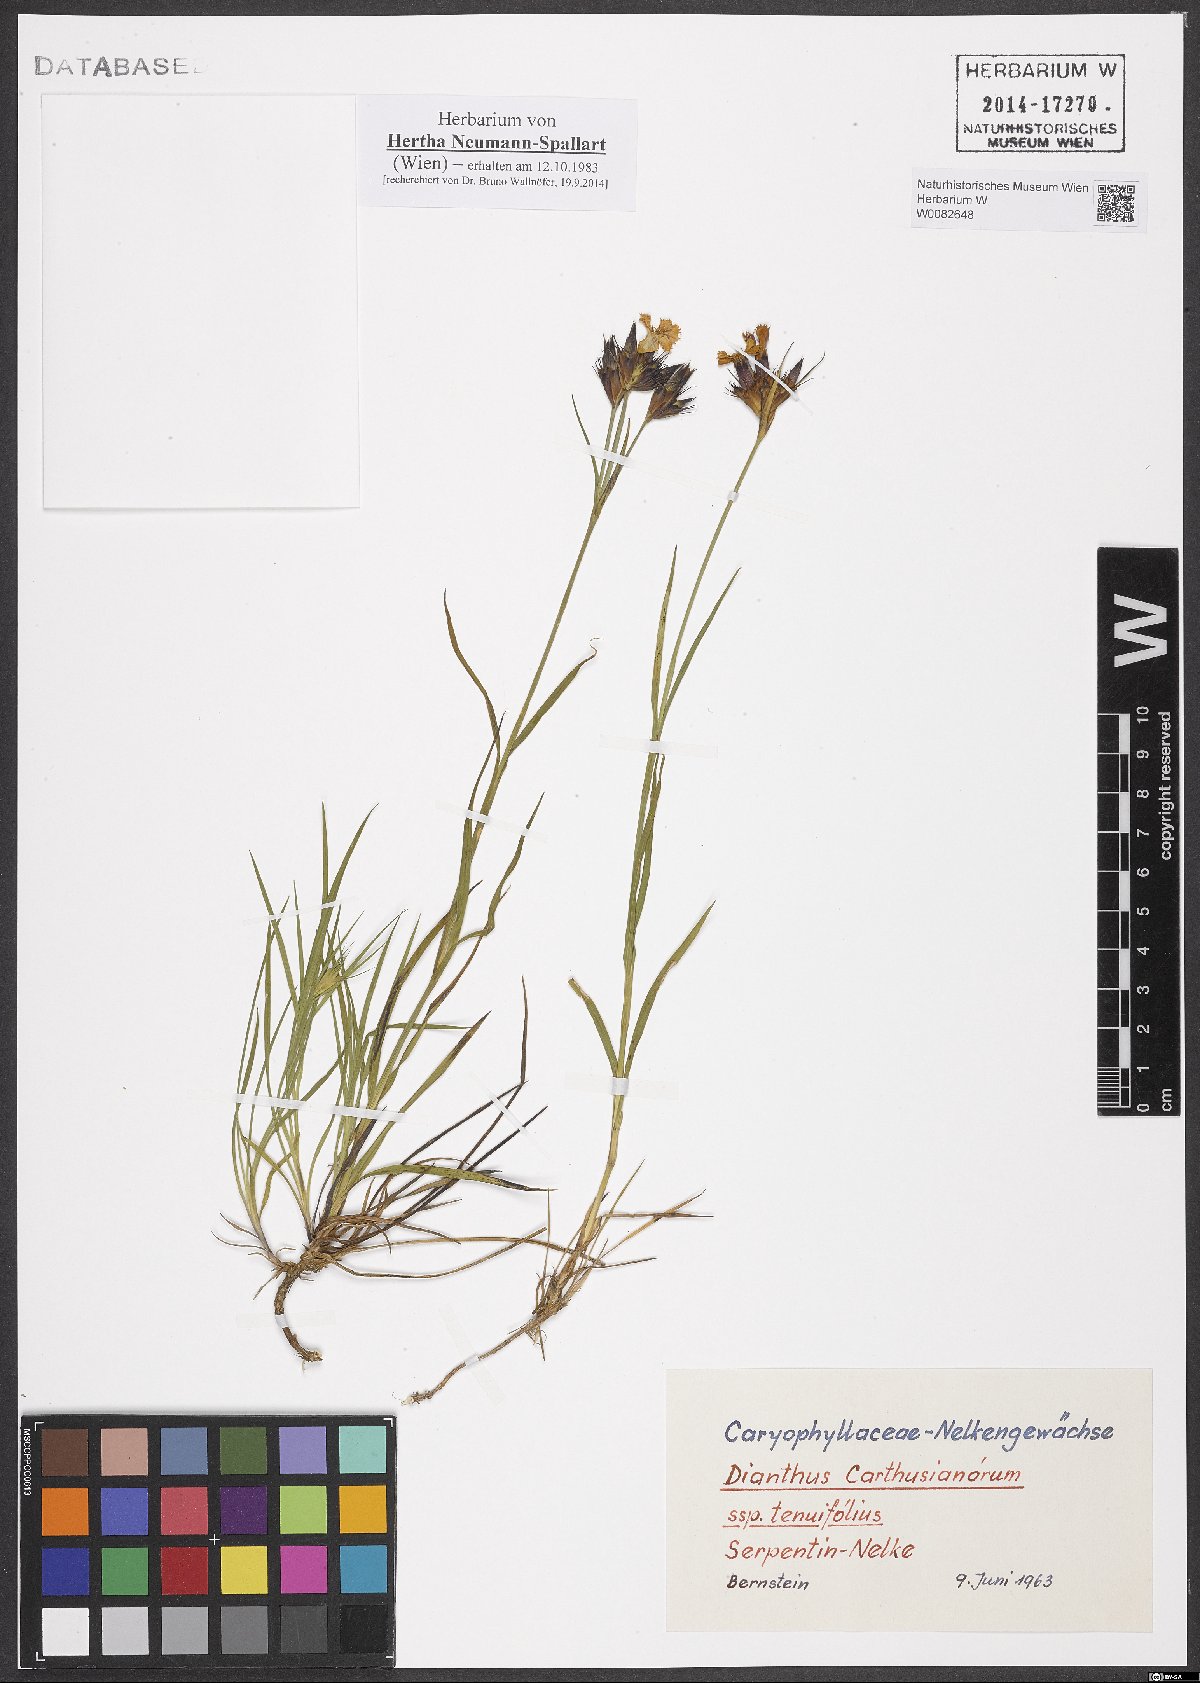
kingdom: Plantae
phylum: Tracheophyta
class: Magnoliopsida
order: Caryophyllales
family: Caryophyllaceae
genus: Dianthus
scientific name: Dianthus carthusianorum
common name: Carthusian pink
